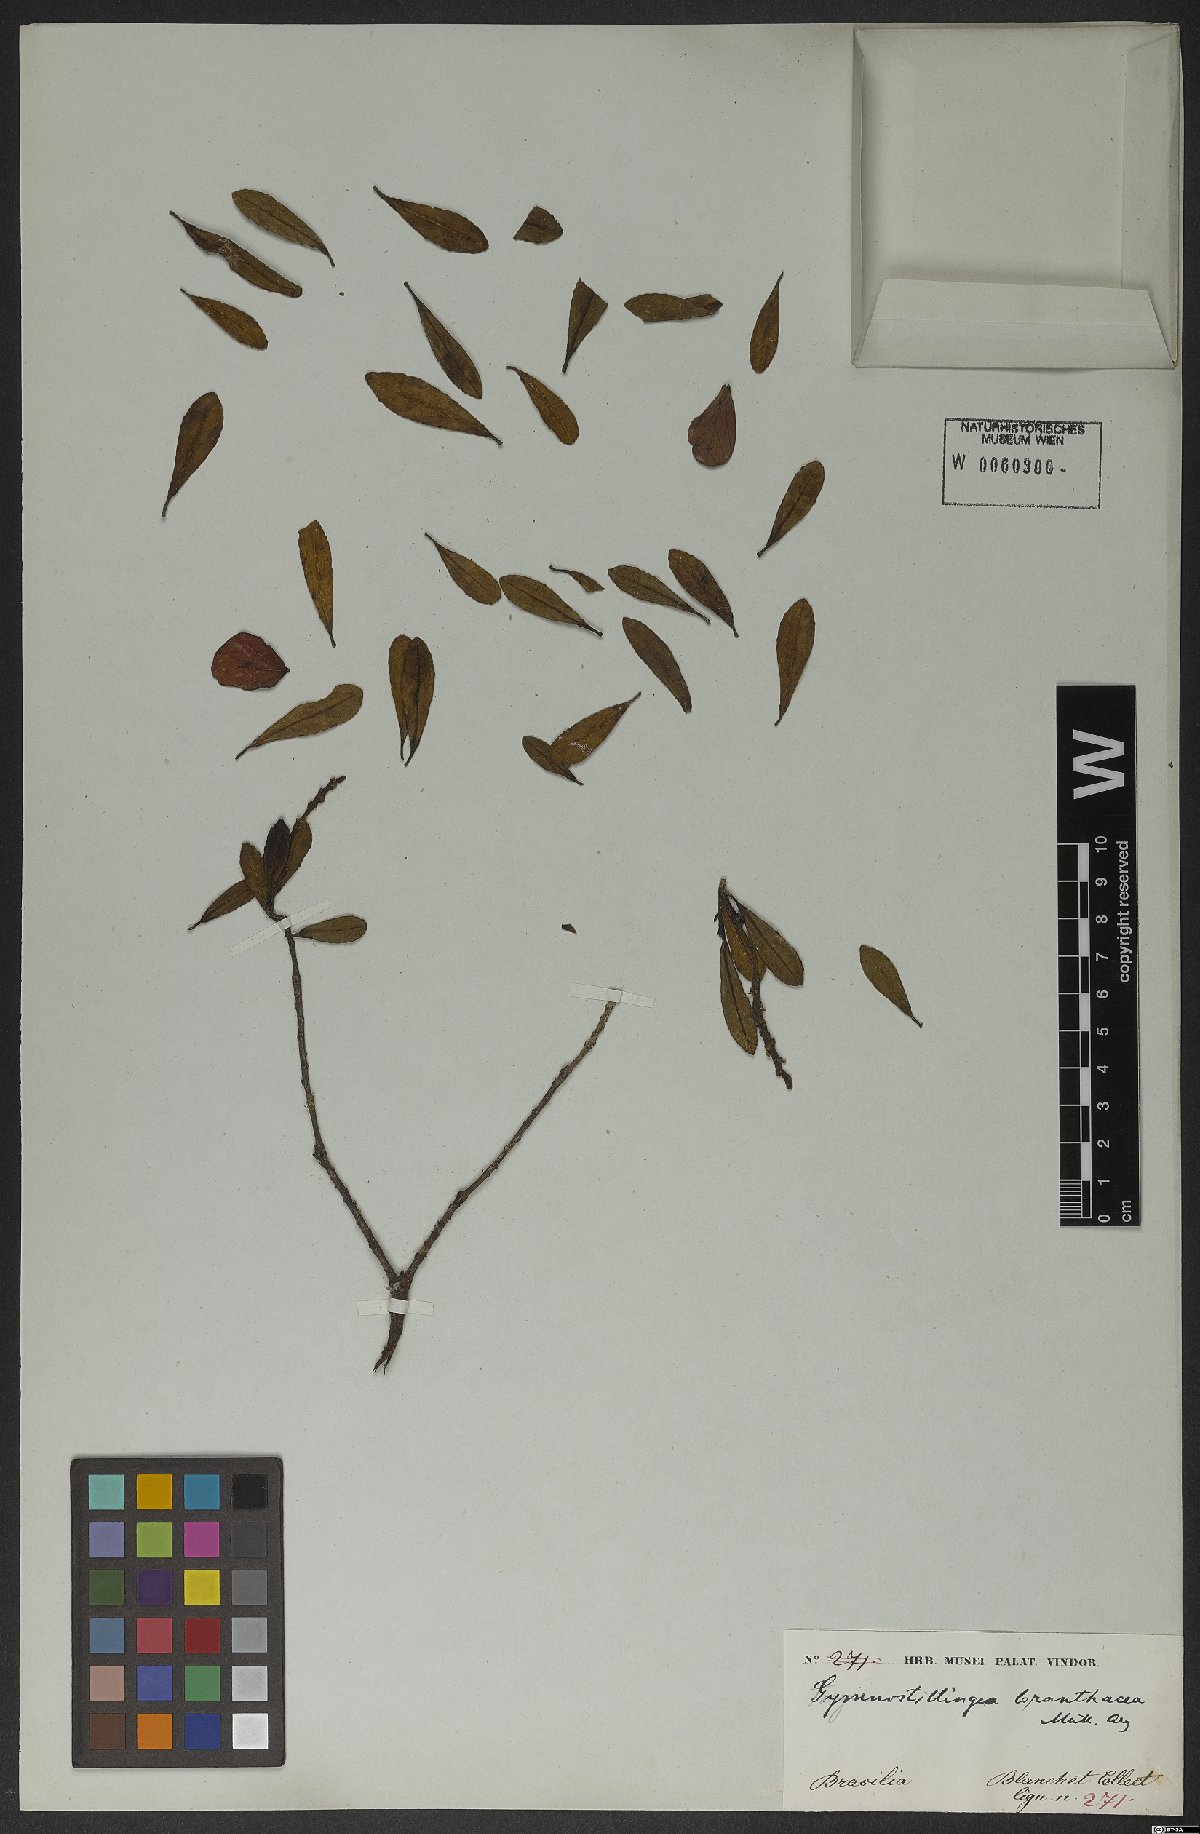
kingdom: Plantae
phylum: Tracheophyta
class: Magnoliopsida
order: Malpighiales
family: Euphorbiaceae
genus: Stillingia
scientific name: Stillingia saxatilis
